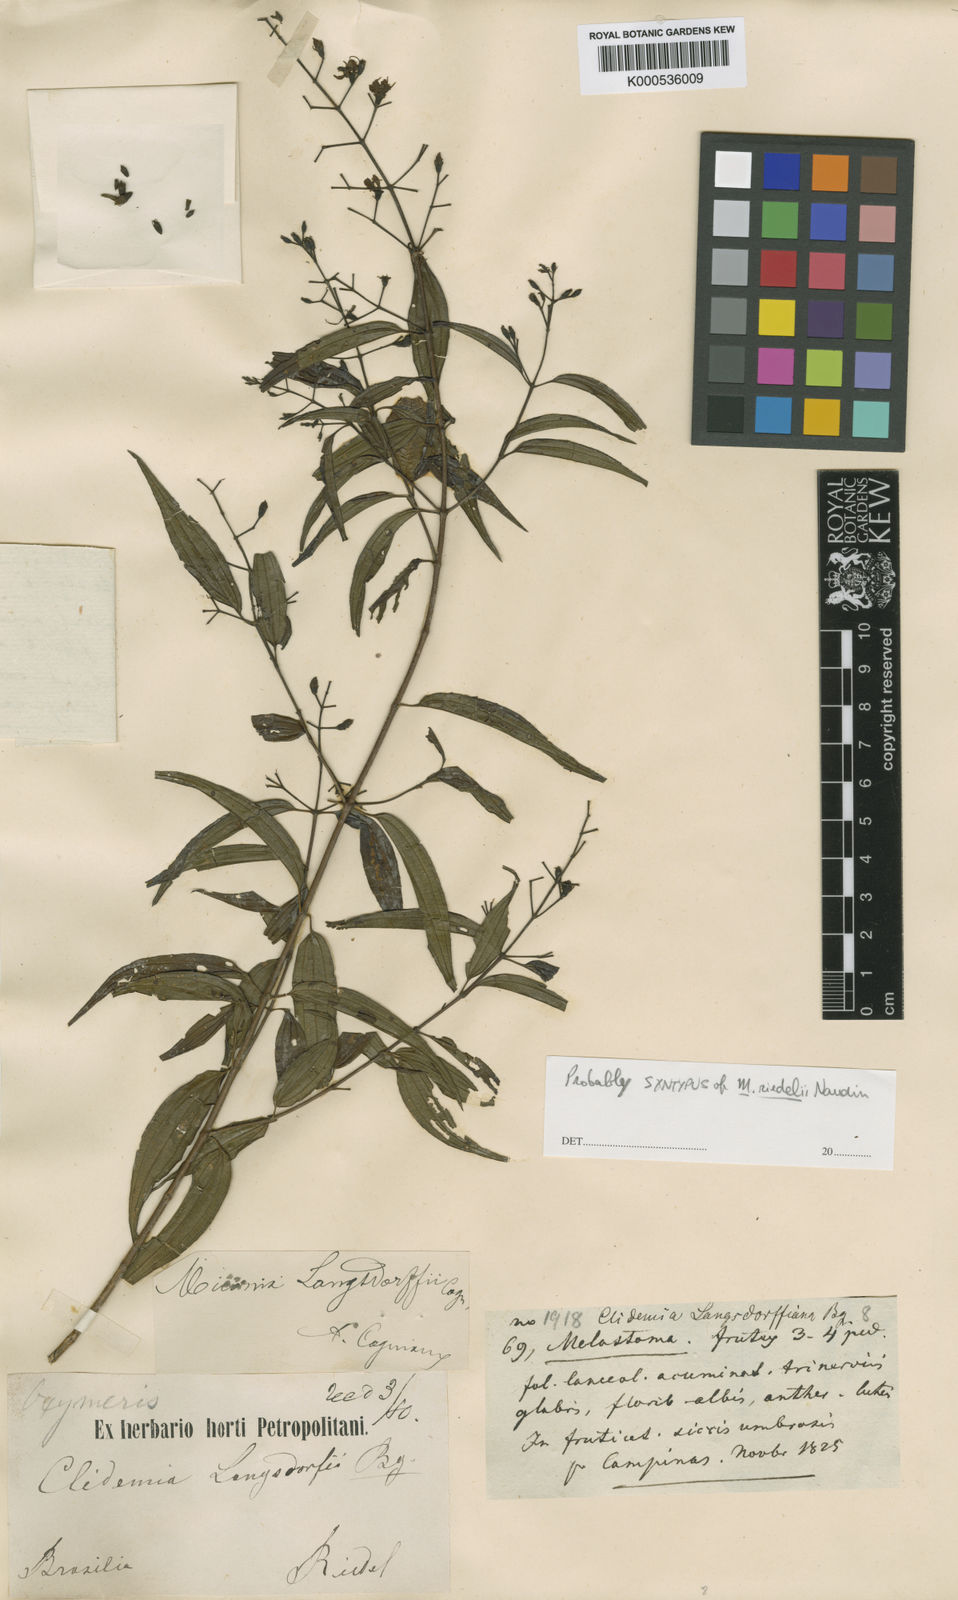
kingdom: Plantae
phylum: Tracheophyta
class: Magnoliopsida
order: Myrtales
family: Melastomataceae
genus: Miconia
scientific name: Miconia paucidens
